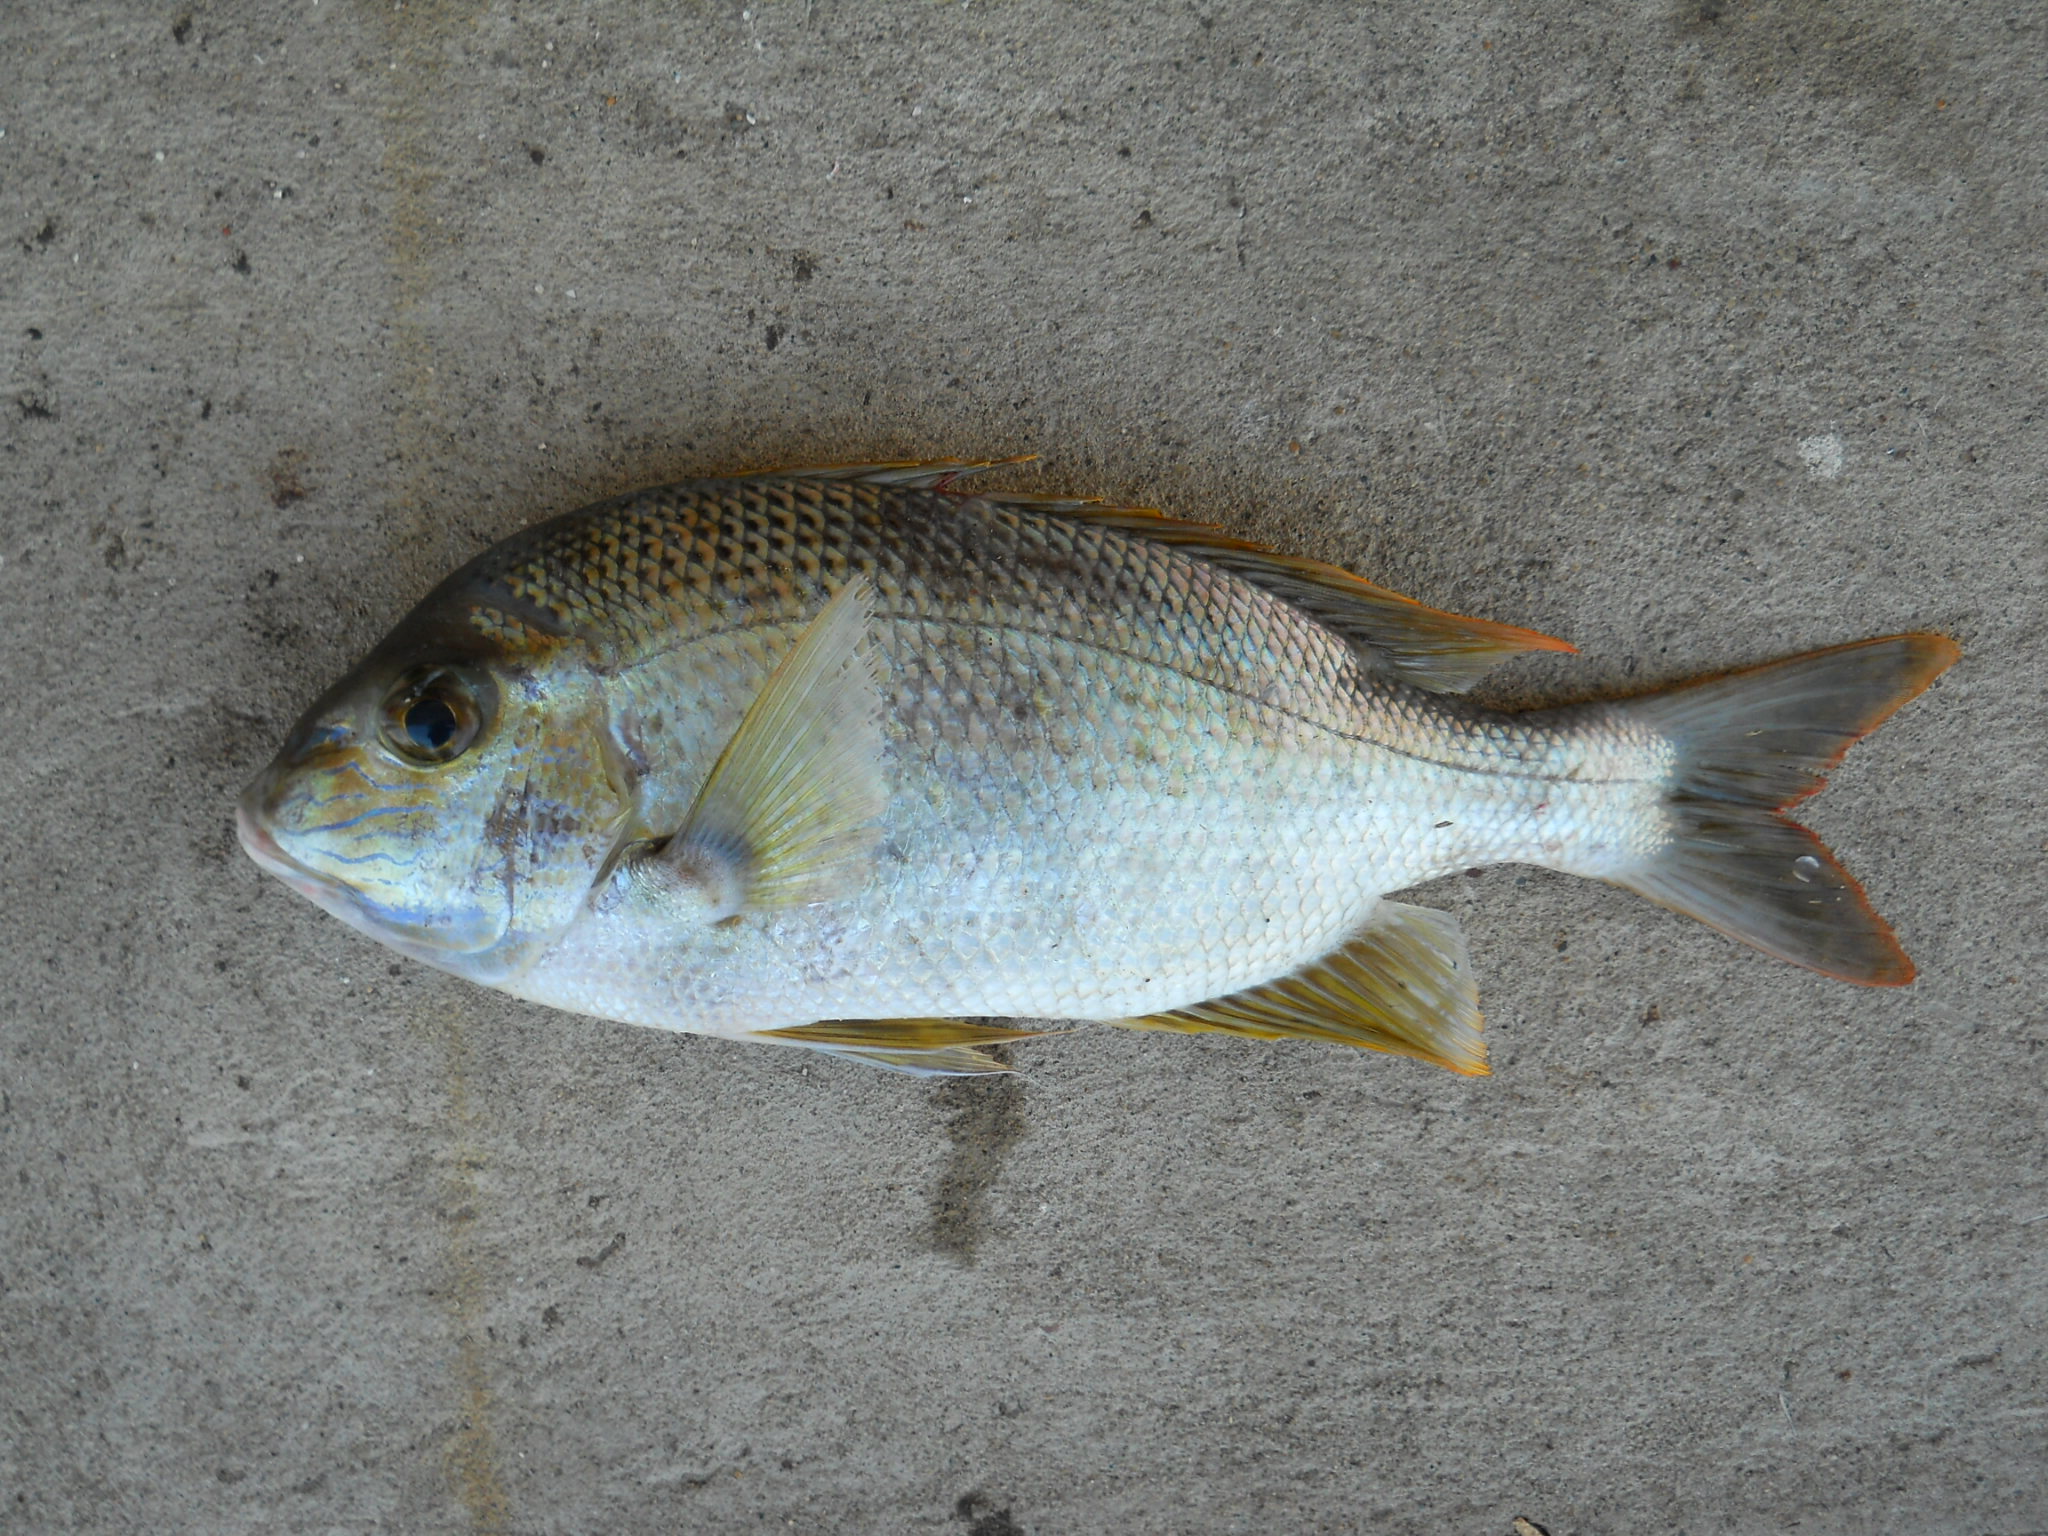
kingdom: Animalia
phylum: Chordata
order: Perciformes
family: Lethrinidae
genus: Gymnocranius
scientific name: Gymnocranius grandoculis
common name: Blue-lined large-eye bream
